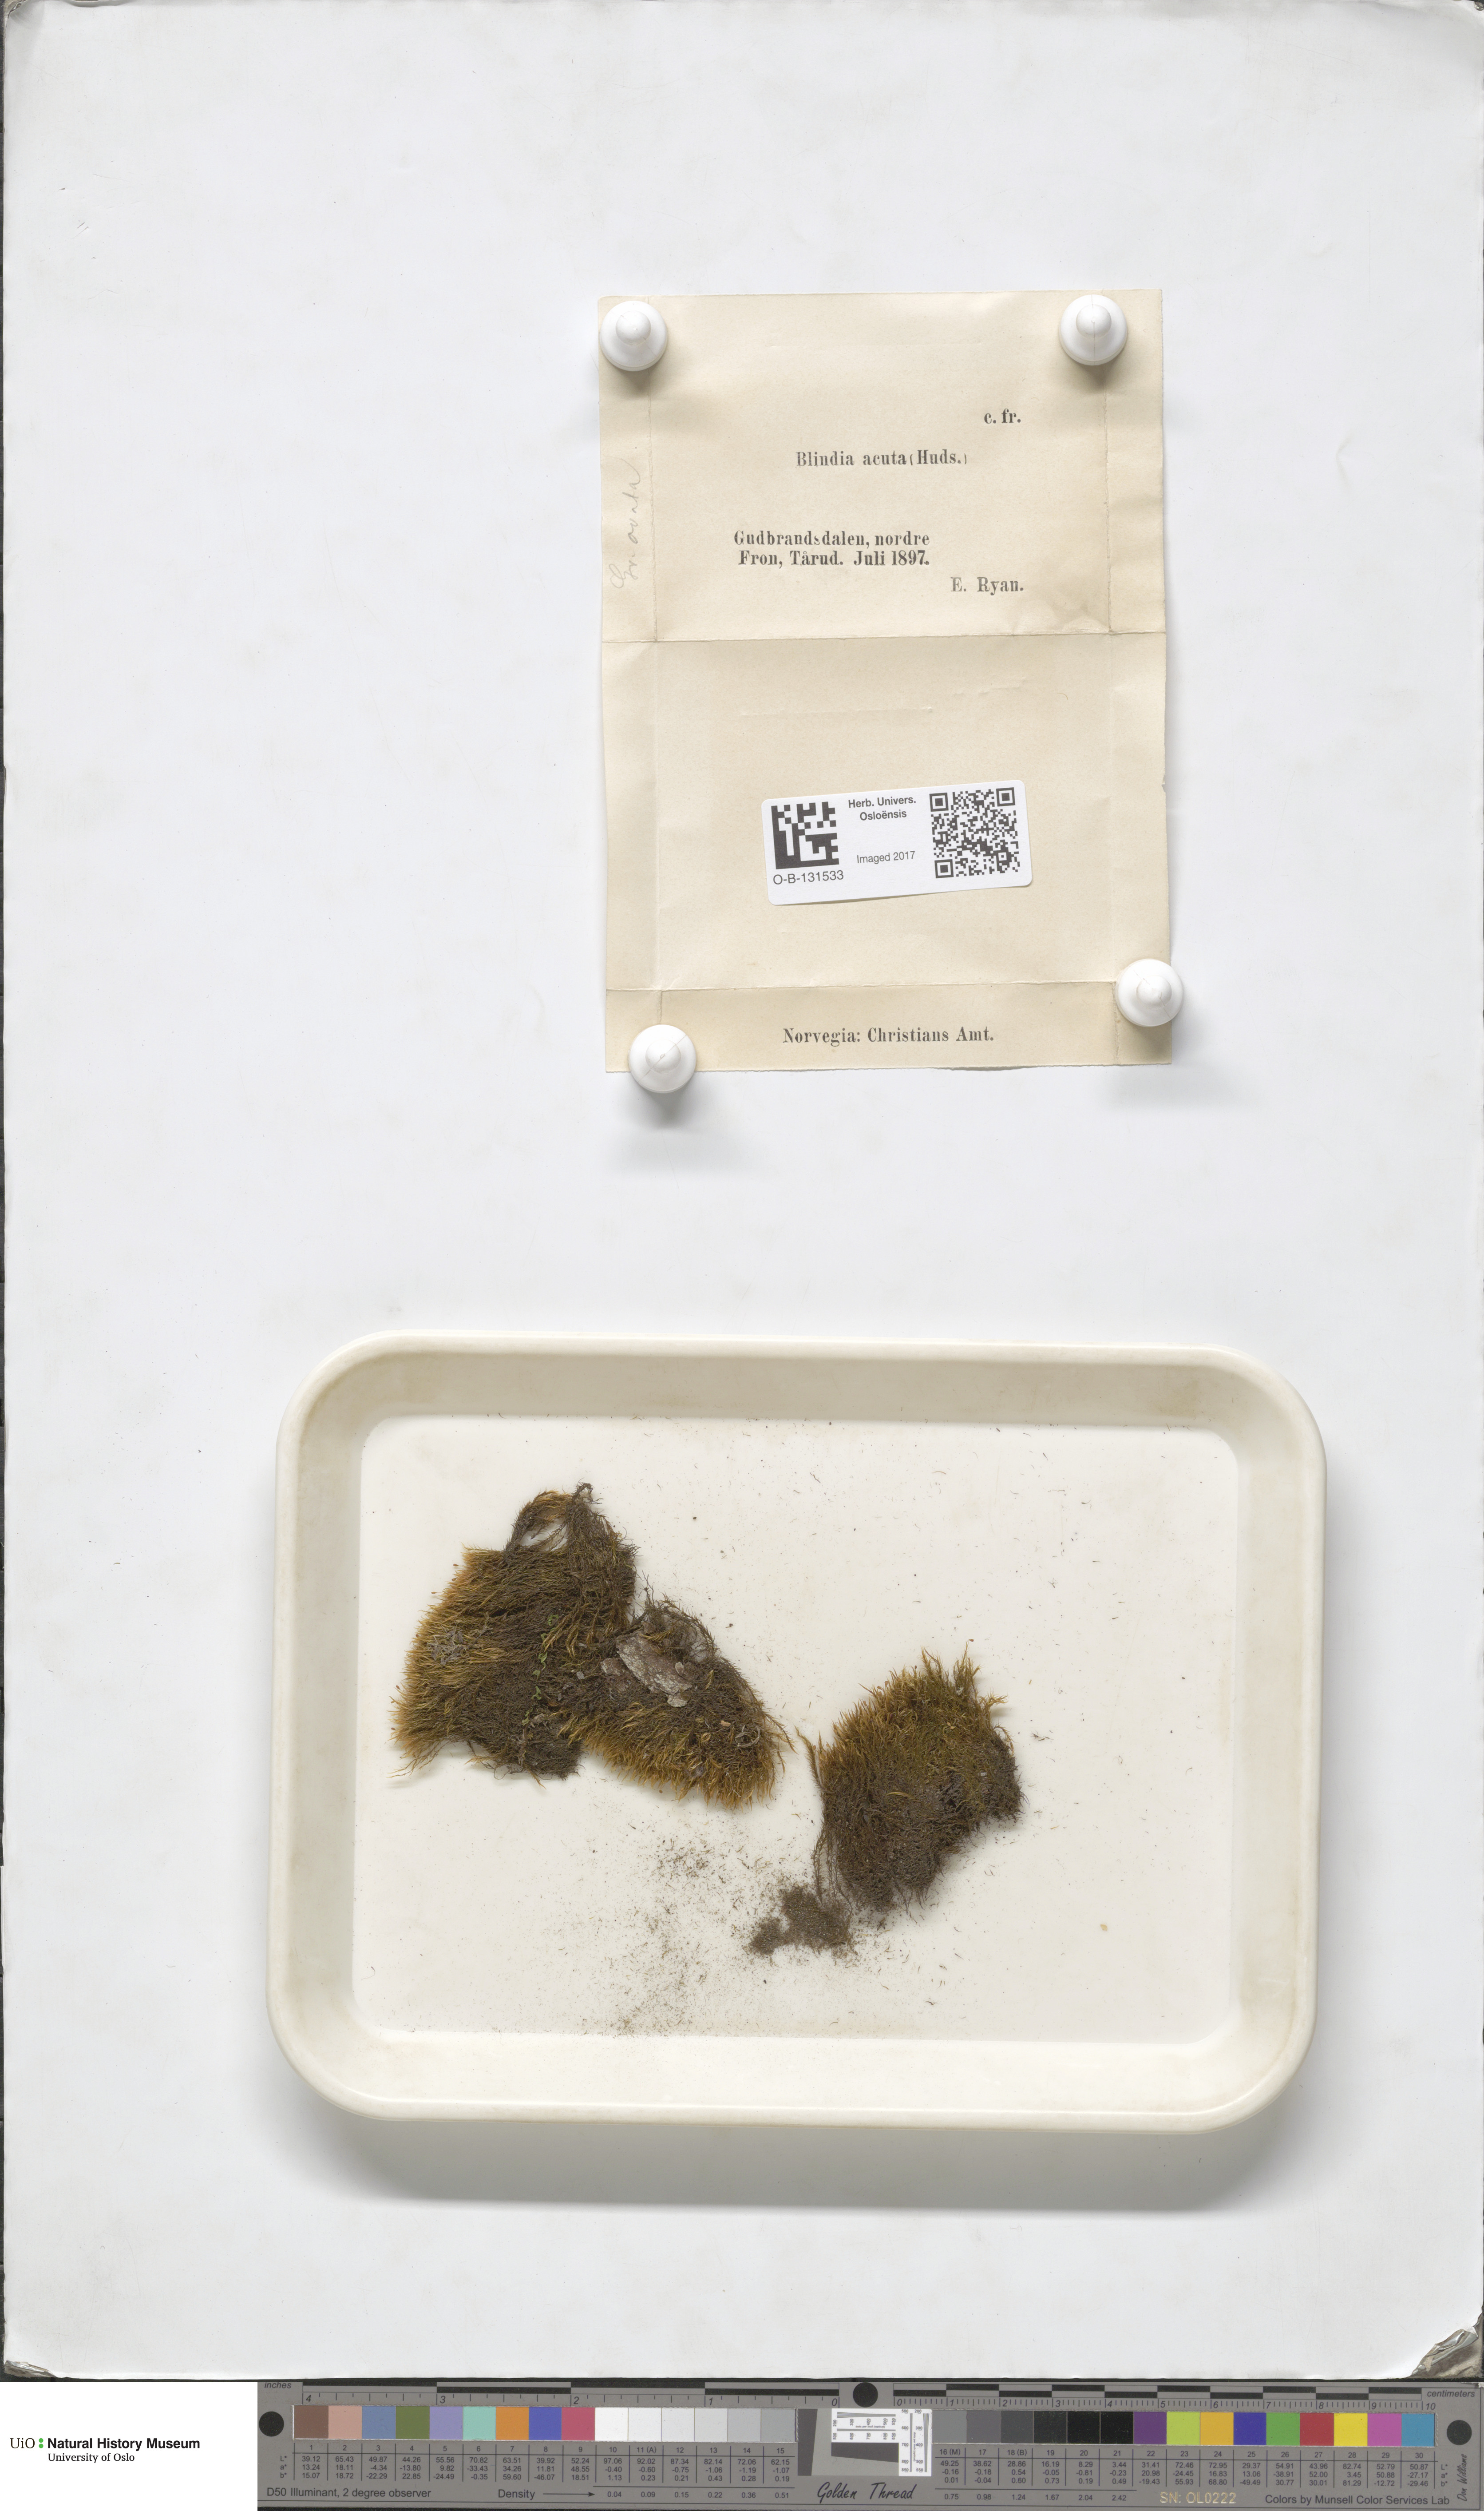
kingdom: Plantae
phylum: Bryophyta
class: Bryopsida
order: Grimmiales
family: Seligeriaceae
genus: Blindia
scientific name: Blindia acuta
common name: Sharp-leaved blind's moss
